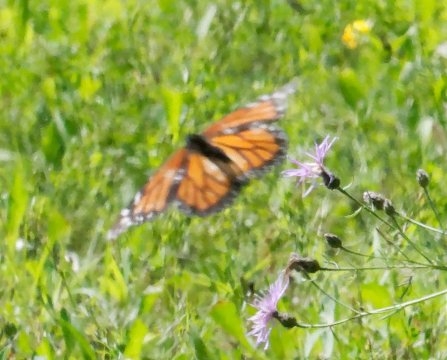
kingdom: Animalia
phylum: Arthropoda
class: Insecta
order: Lepidoptera
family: Nymphalidae
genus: Danaus
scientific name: Danaus plexippus
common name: Monarch
